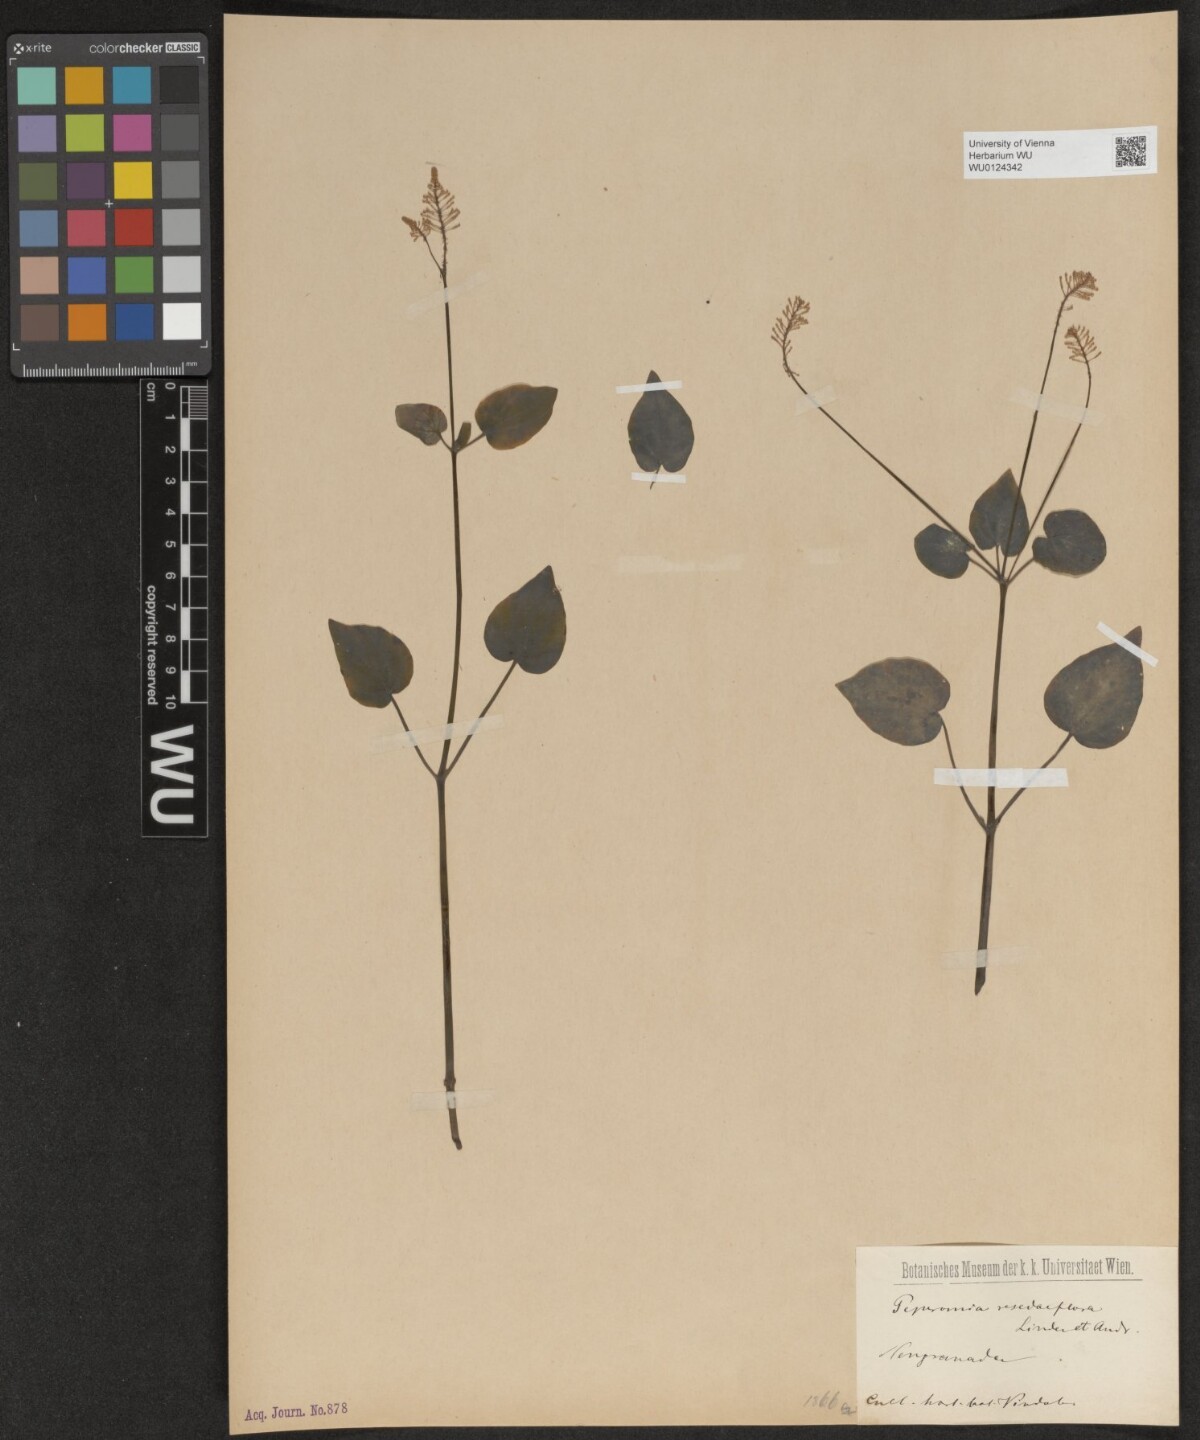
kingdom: Plantae
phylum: Tracheophyta
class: Magnoliopsida
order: Piperales
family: Piperaceae
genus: Peperomia
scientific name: Peperomia fraseri
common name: Mignonette peperomia
